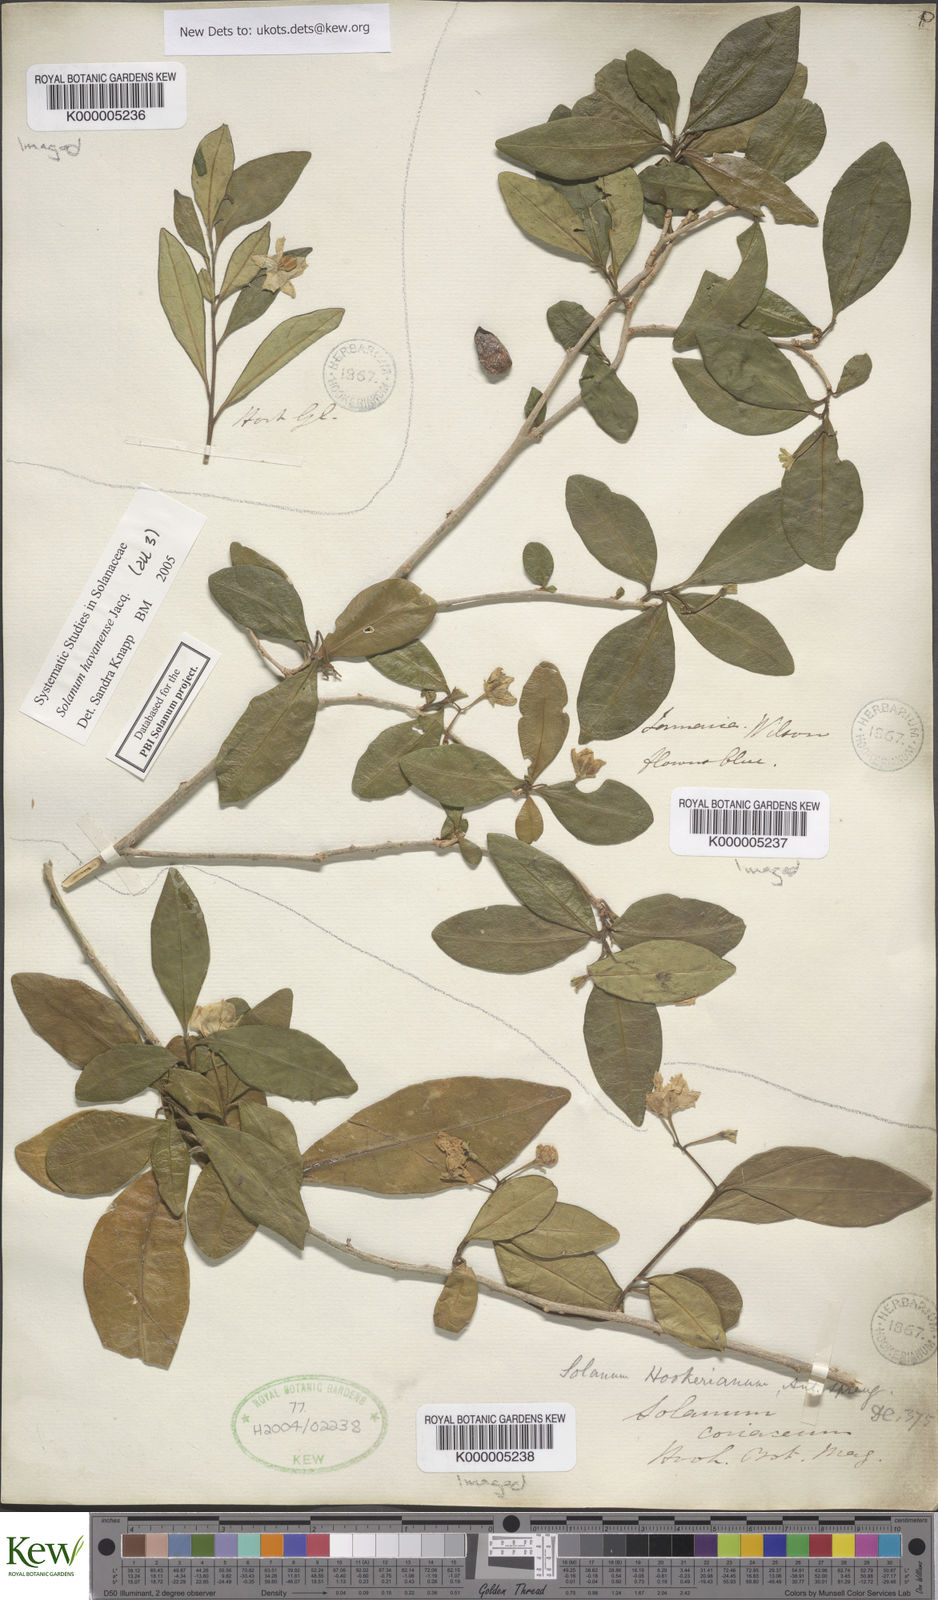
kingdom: Plantae
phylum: Tracheophyta
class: Magnoliopsida
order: Solanales
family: Solanaceae
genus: Solanum
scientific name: Solanum havanense
